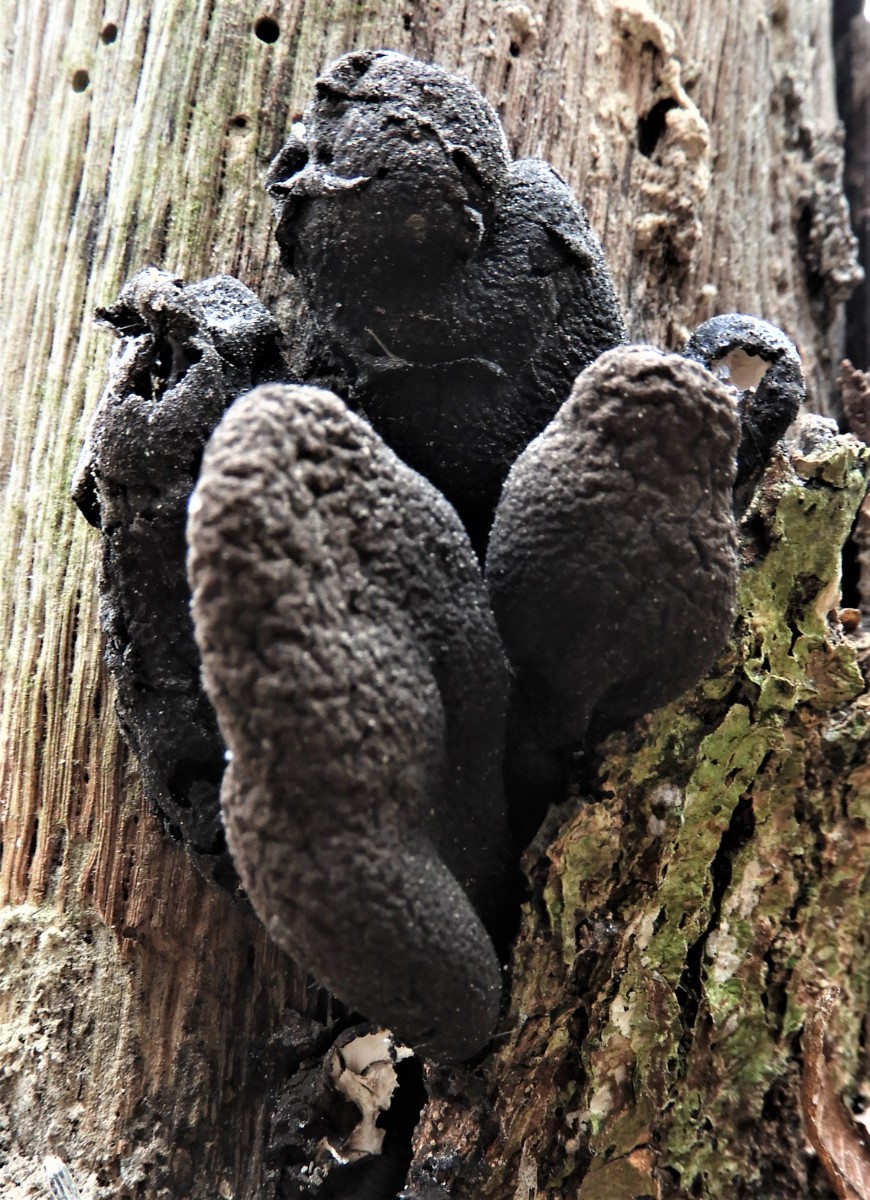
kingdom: Fungi
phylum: Ascomycota
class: Sordariomycetes
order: Xylariales
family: Xylariaceae
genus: Xylaria
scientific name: Xylaria polymorpha
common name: kølle-stødsvamp
